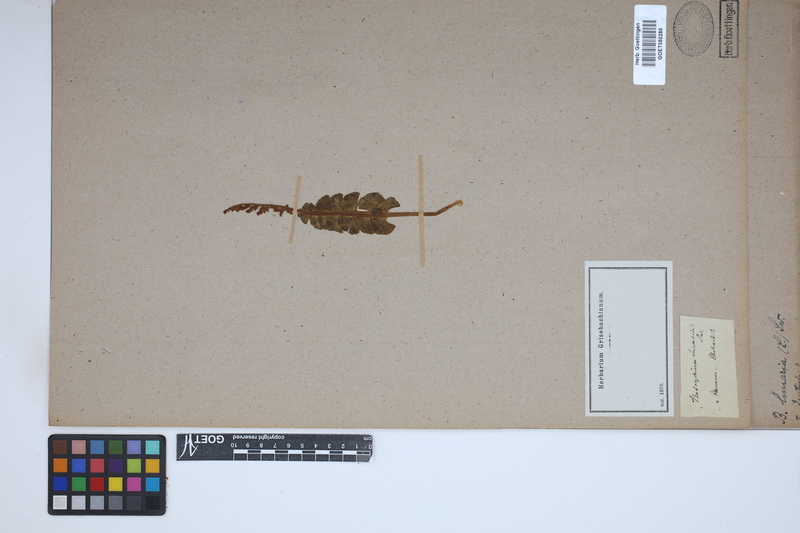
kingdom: Plantae
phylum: Tracheophyta
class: Polypodiopsida
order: Ophioglossales
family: Ophioglossaceae
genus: Botrychium
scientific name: Botrychium lunaria
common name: Moonwort
